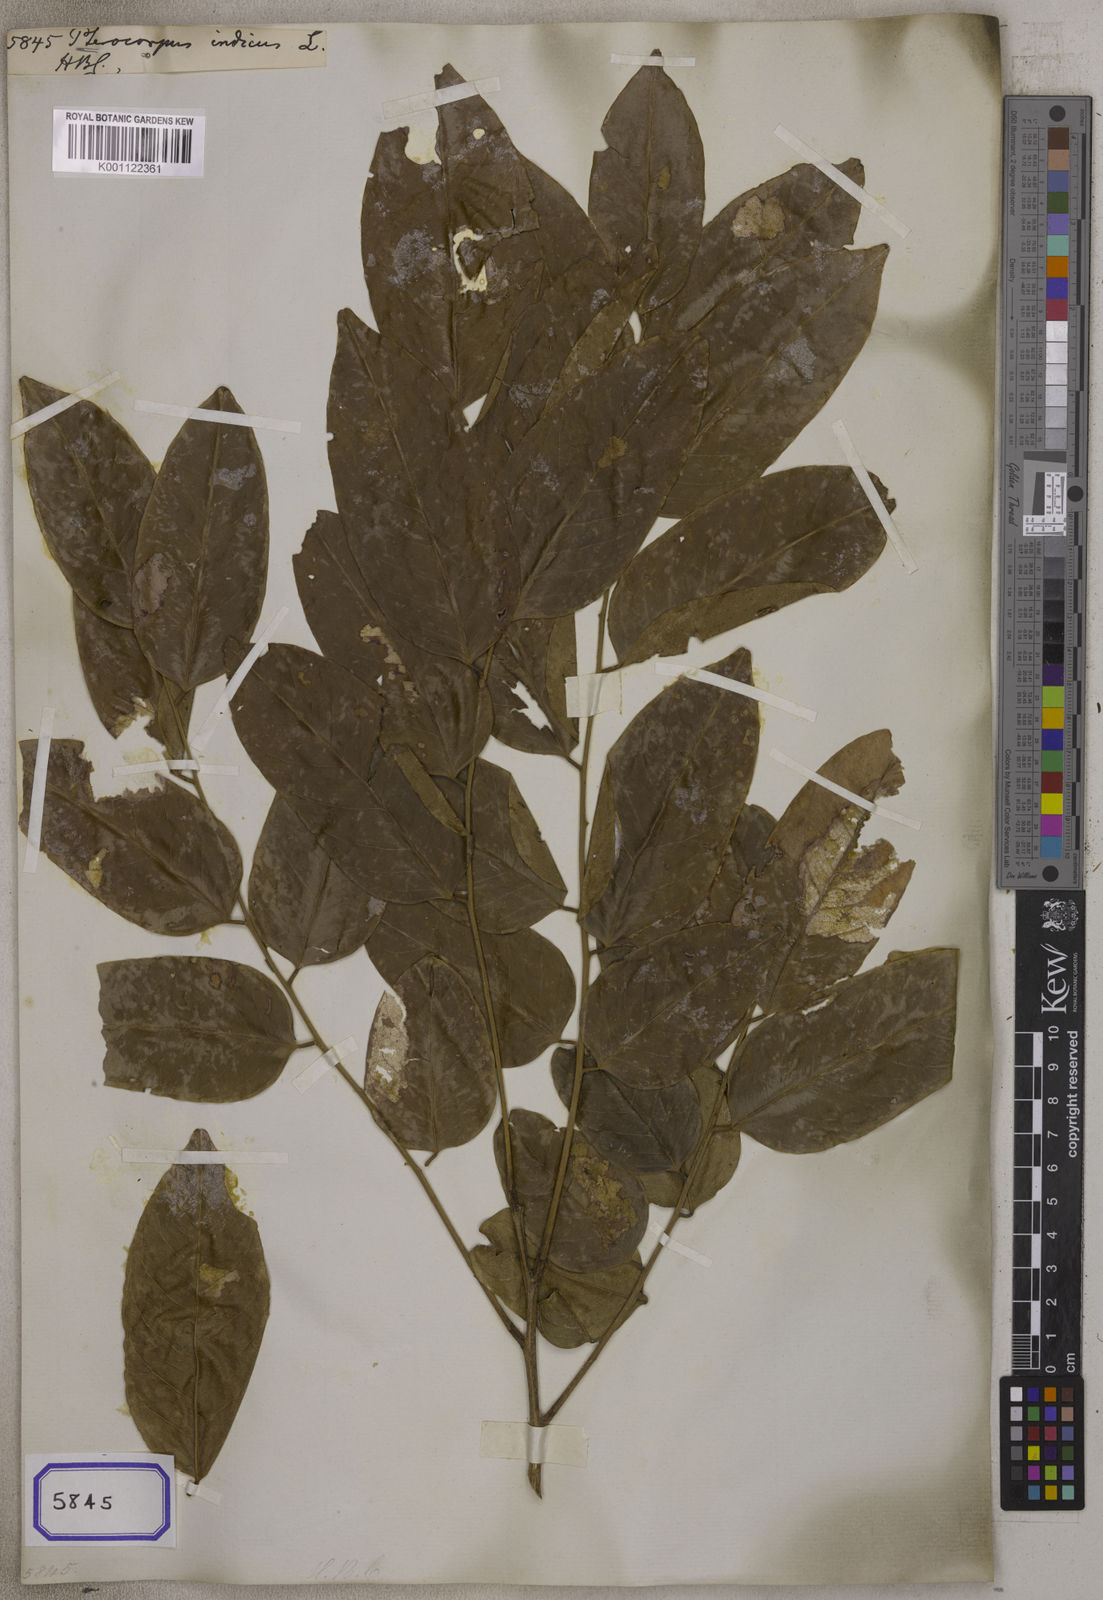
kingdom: Plantae
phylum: Tracheophyta
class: Magnoliopsida
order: Fabales
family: Fabaceae
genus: Pterocarpus
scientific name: Pterocarpus
